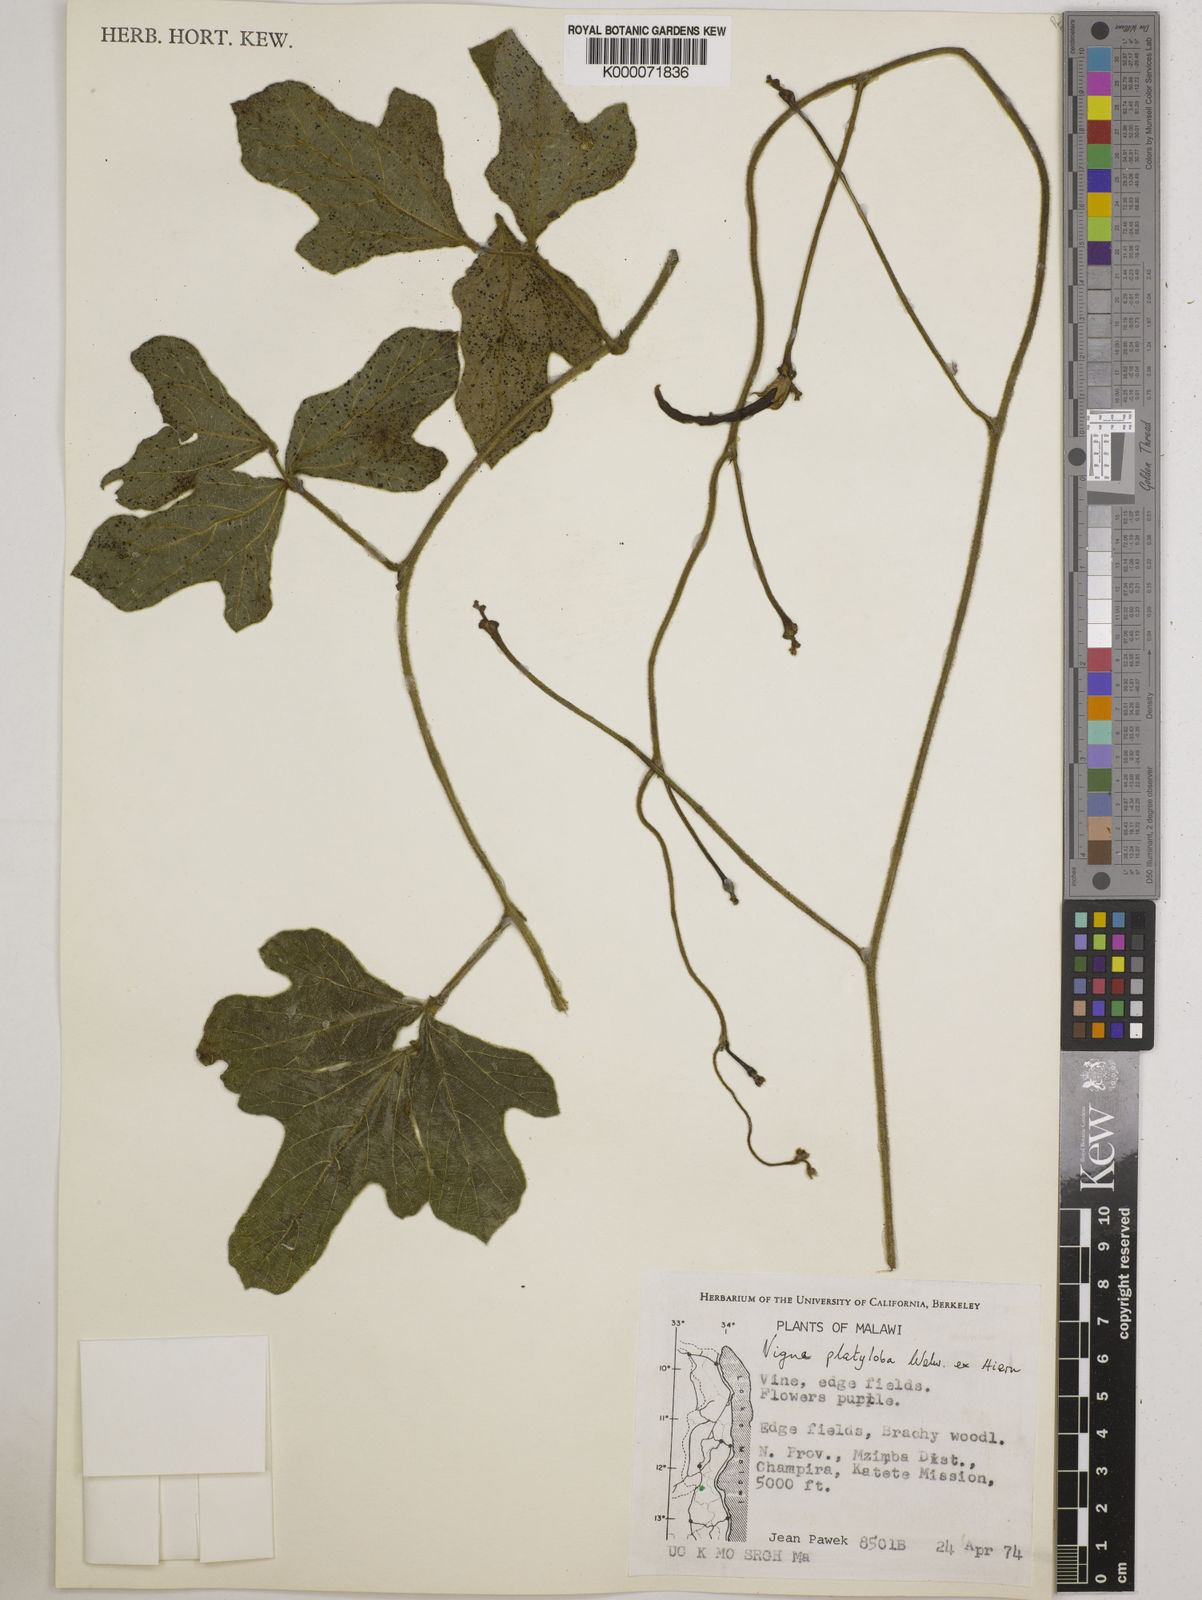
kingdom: Plantae
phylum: Tracheophyta
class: Magnoliopsida
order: Fabales
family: Fabaceae
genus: Vigna
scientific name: Vigna platyloba
